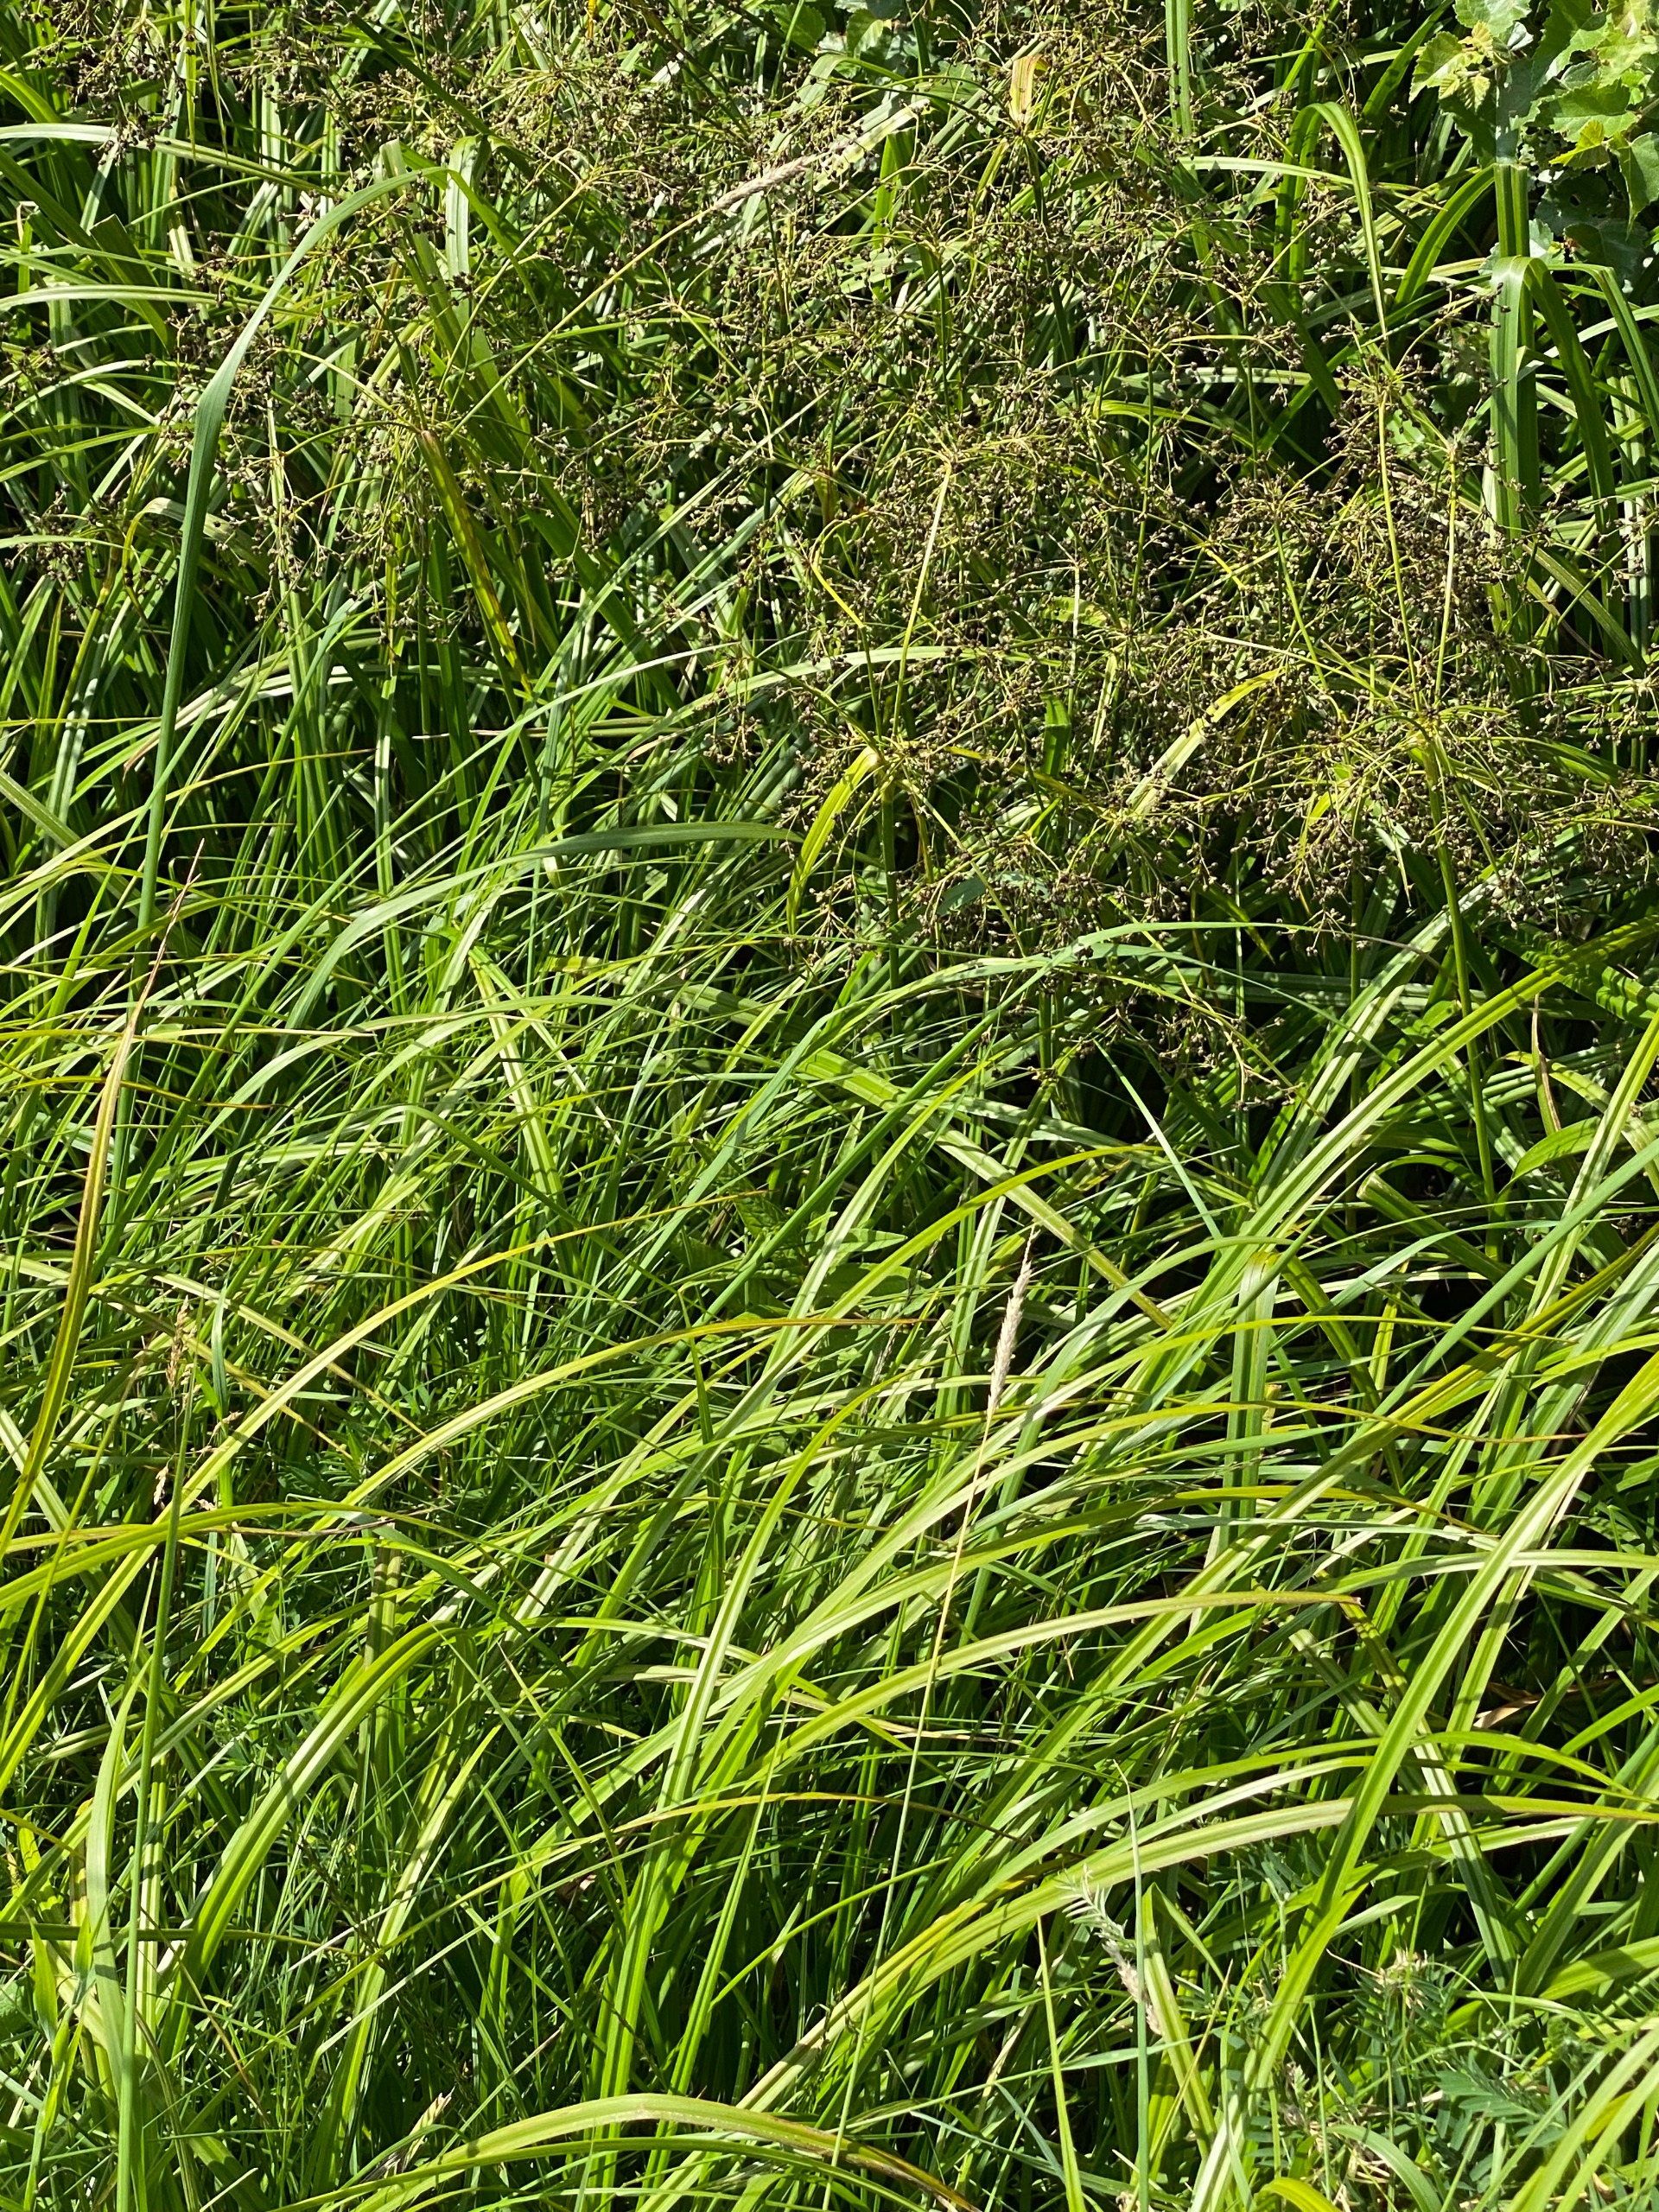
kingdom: Plantae
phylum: Tracheophyta
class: Liliopsida
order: Poales
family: Cyperaceae
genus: Scirpus
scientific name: Scirpus sylvaticus
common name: Skov-kogleaks
